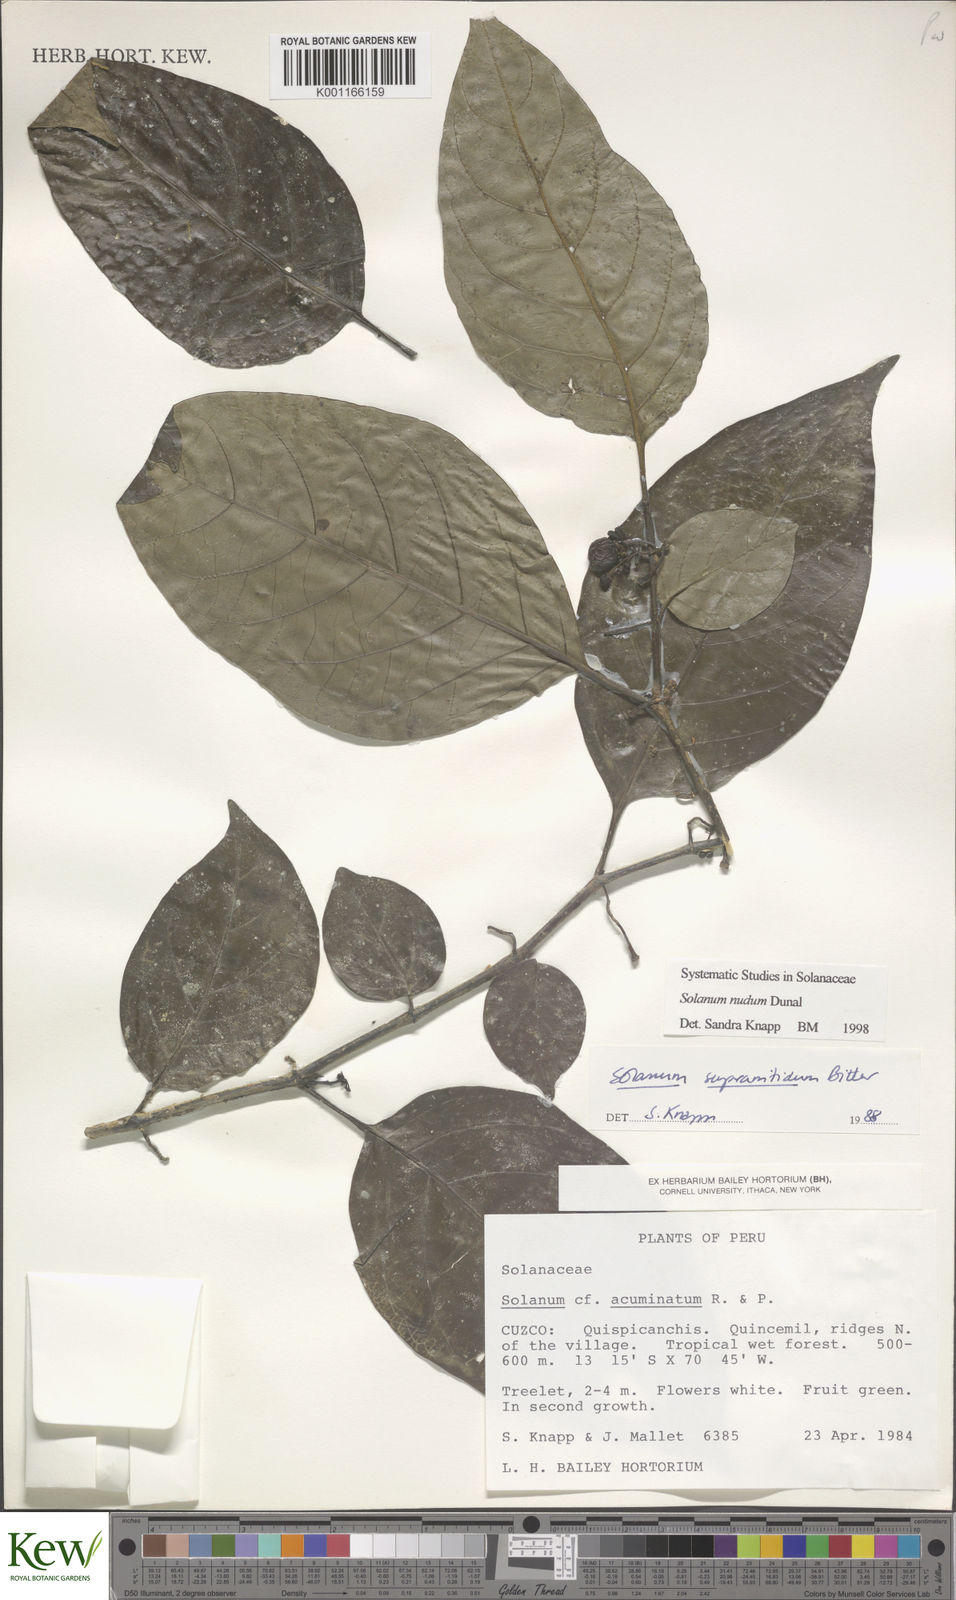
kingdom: Plantae
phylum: Tracheophyta
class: Magnoliopsida
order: Solanales
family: Solanaceae
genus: Solanum
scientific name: Solanum nudum
